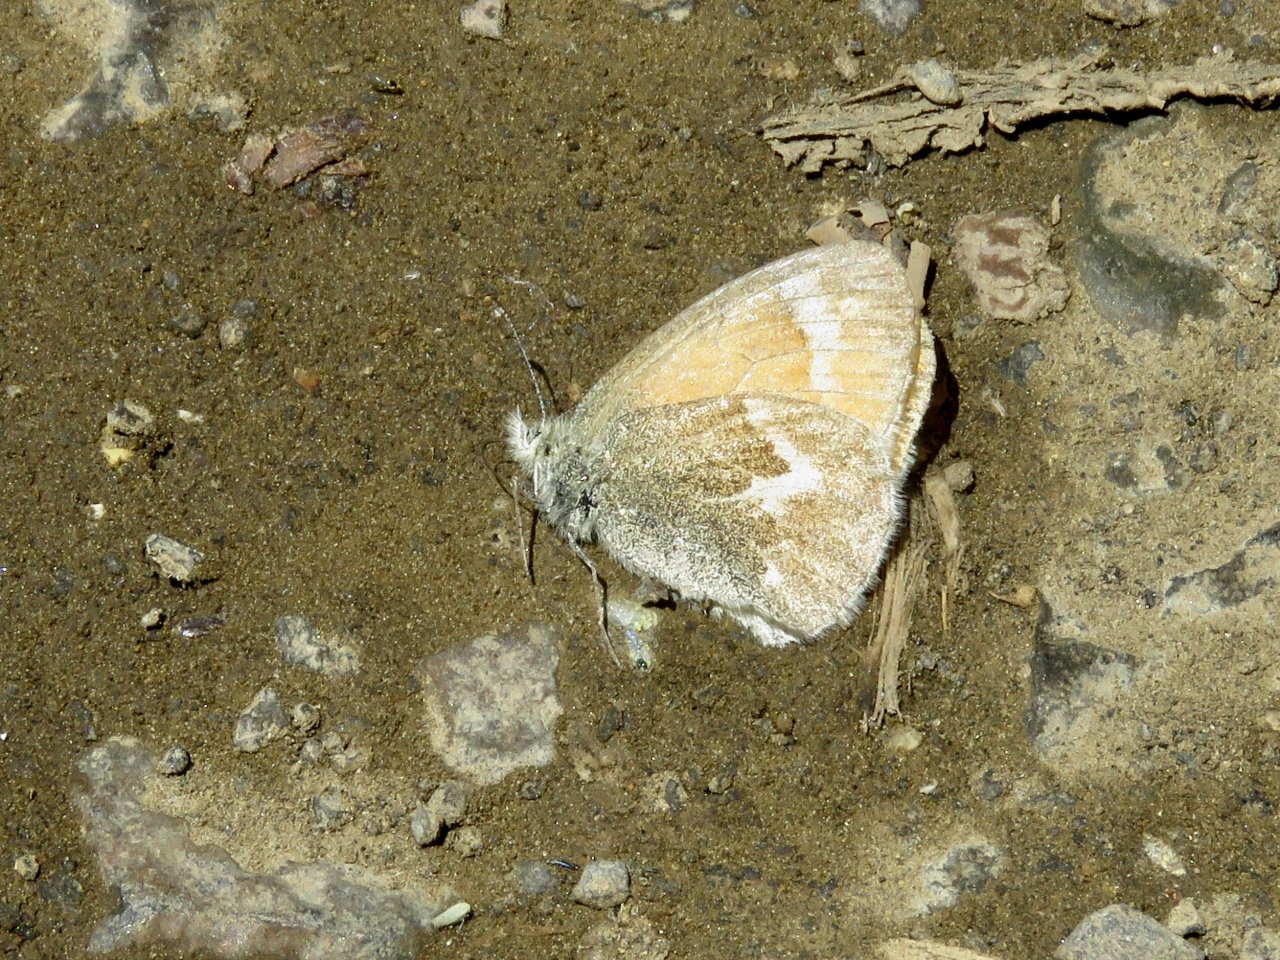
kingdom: Animalia
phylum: Arthropoda
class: Insecta
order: Lepidoptera
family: Nymphalidae
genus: Coenonympha
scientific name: Coenonympha tullia
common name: Large Heath
